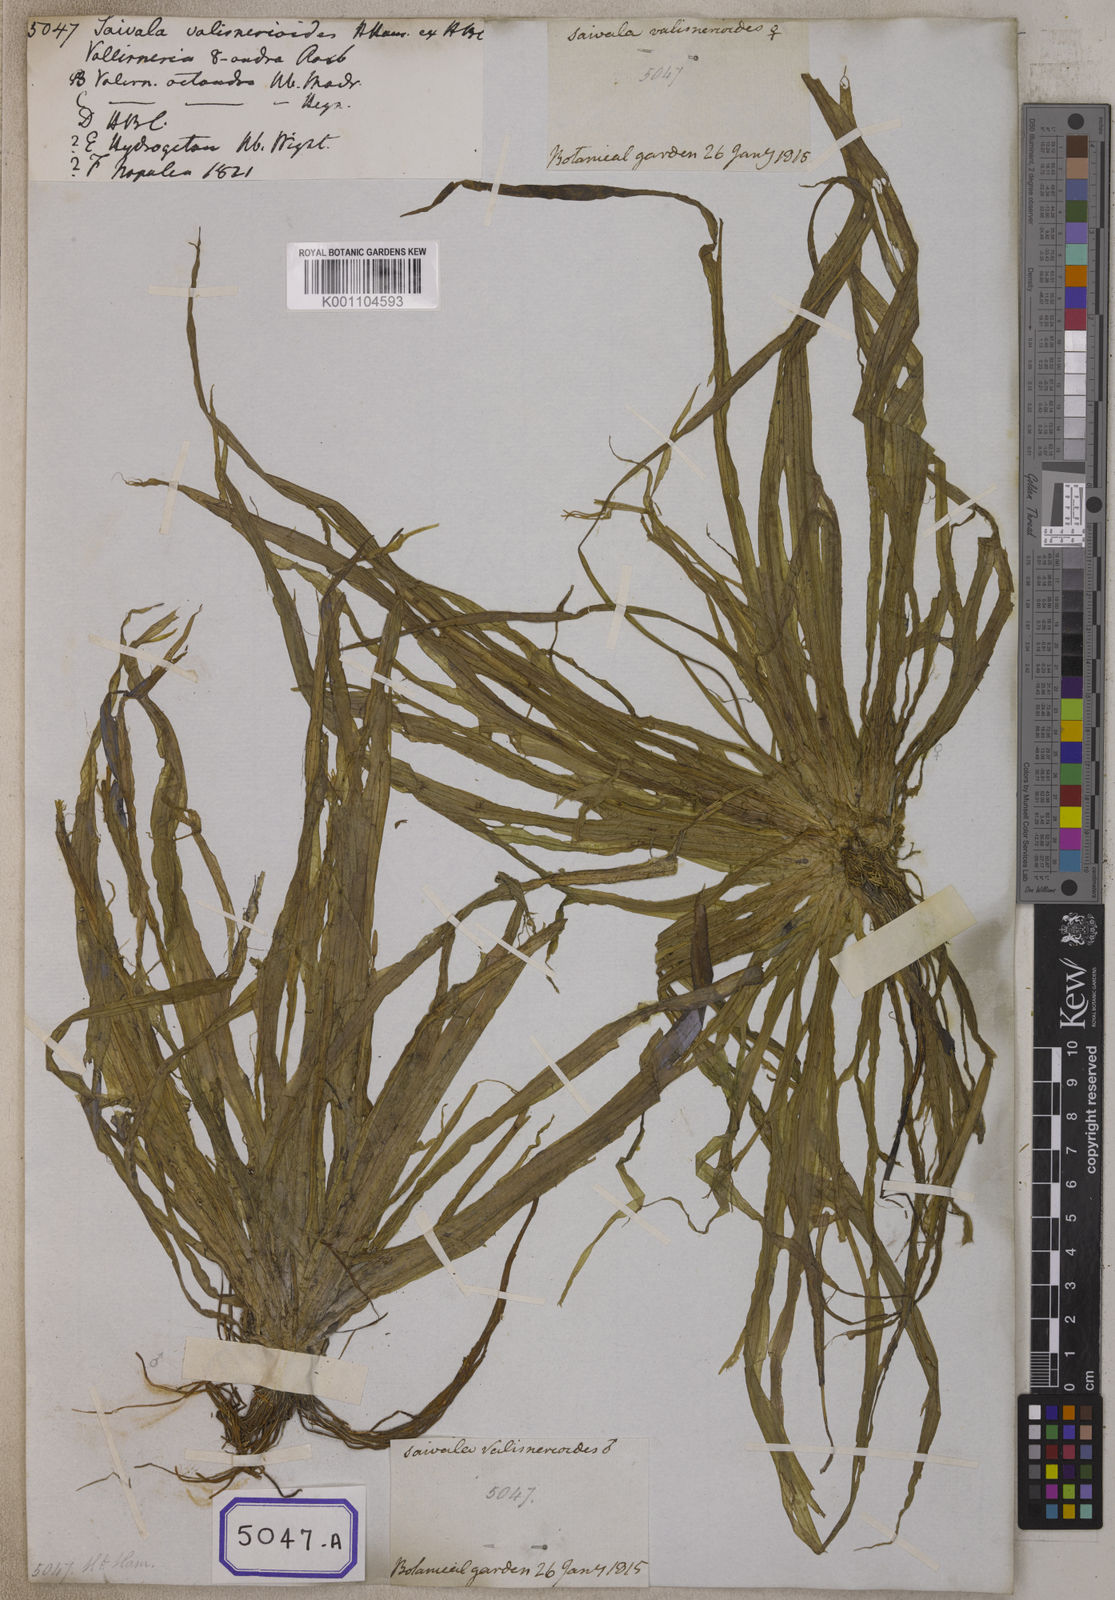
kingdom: Plantae
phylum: Tracheophyta
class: Liliopsida
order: Alismatales
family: Hydrocharitaceae
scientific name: Hydrocharitaceae
